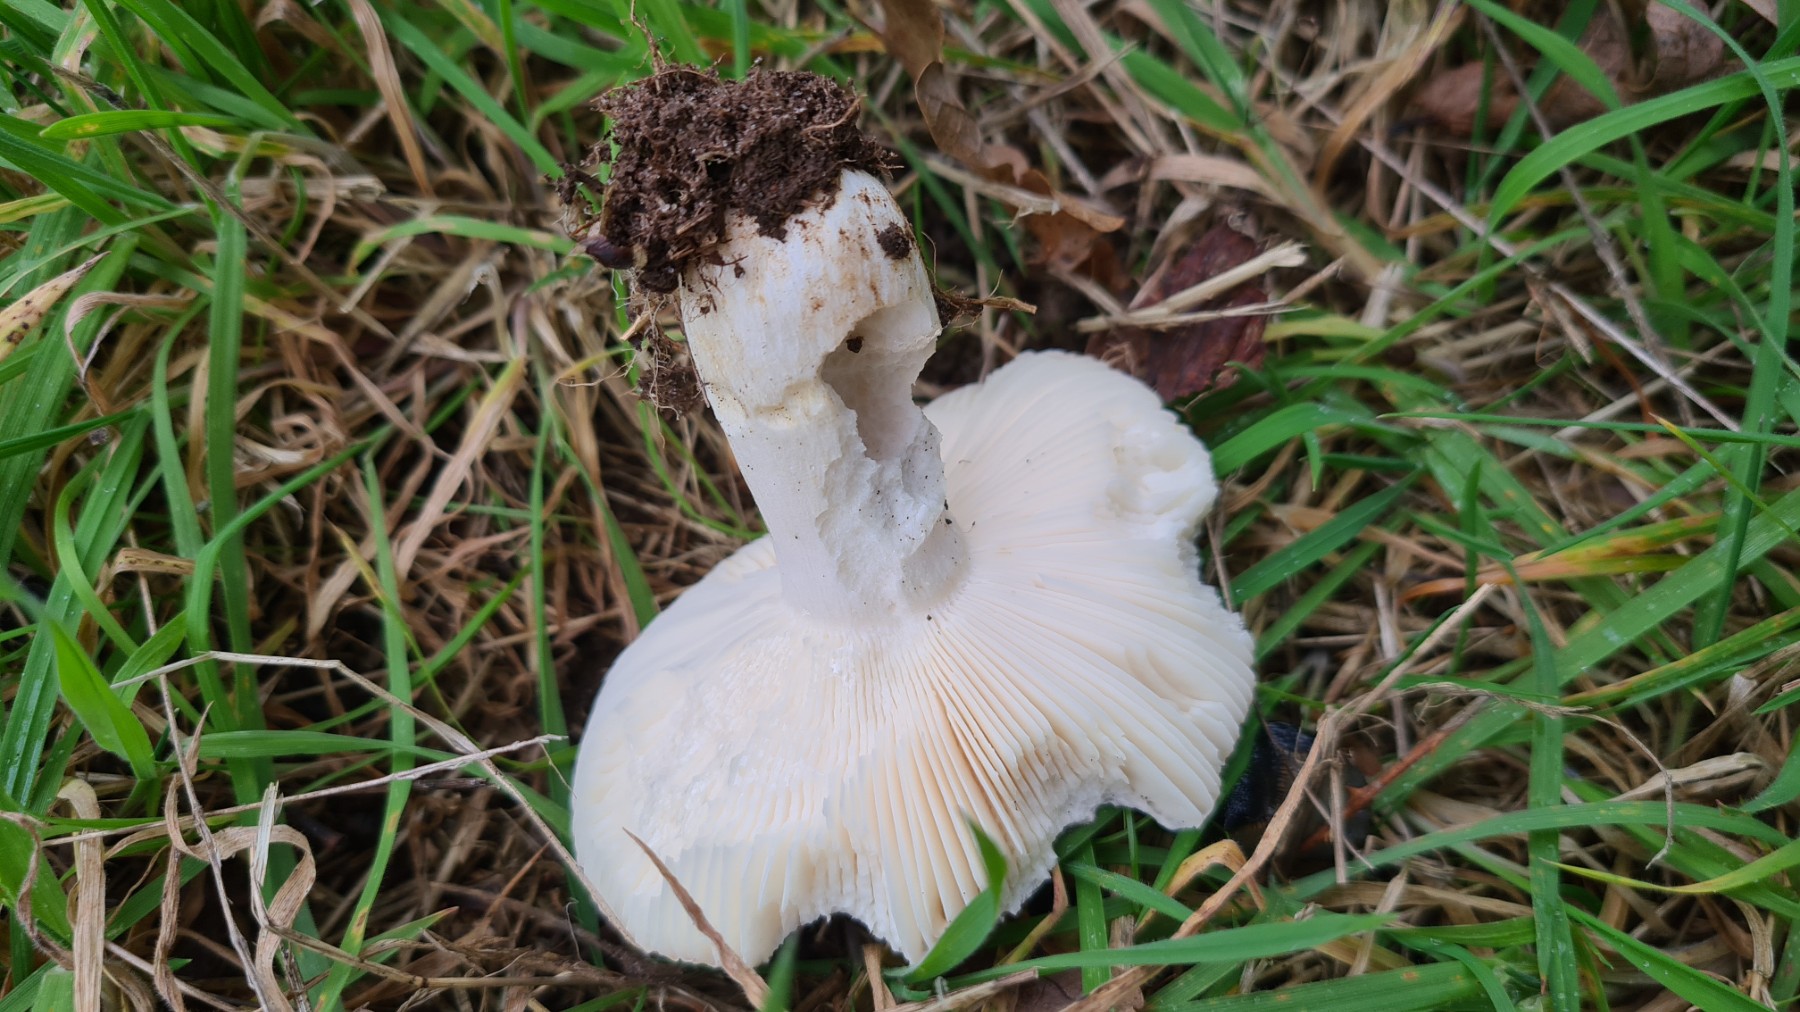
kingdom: Fungi
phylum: Basidiomycota
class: Agaricomycetes
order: Russulales
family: Russulaceae
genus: Russula
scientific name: Russula
